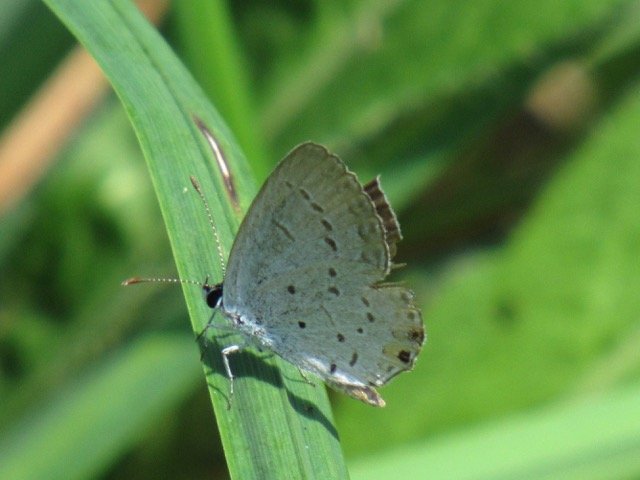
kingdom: Animalia
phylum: Arthropoda
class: Insecta
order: Lepidoptera
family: Lycaenidae
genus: Elkalyce
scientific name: Elkalyce comyntas
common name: Eastern Tailed-Blue
